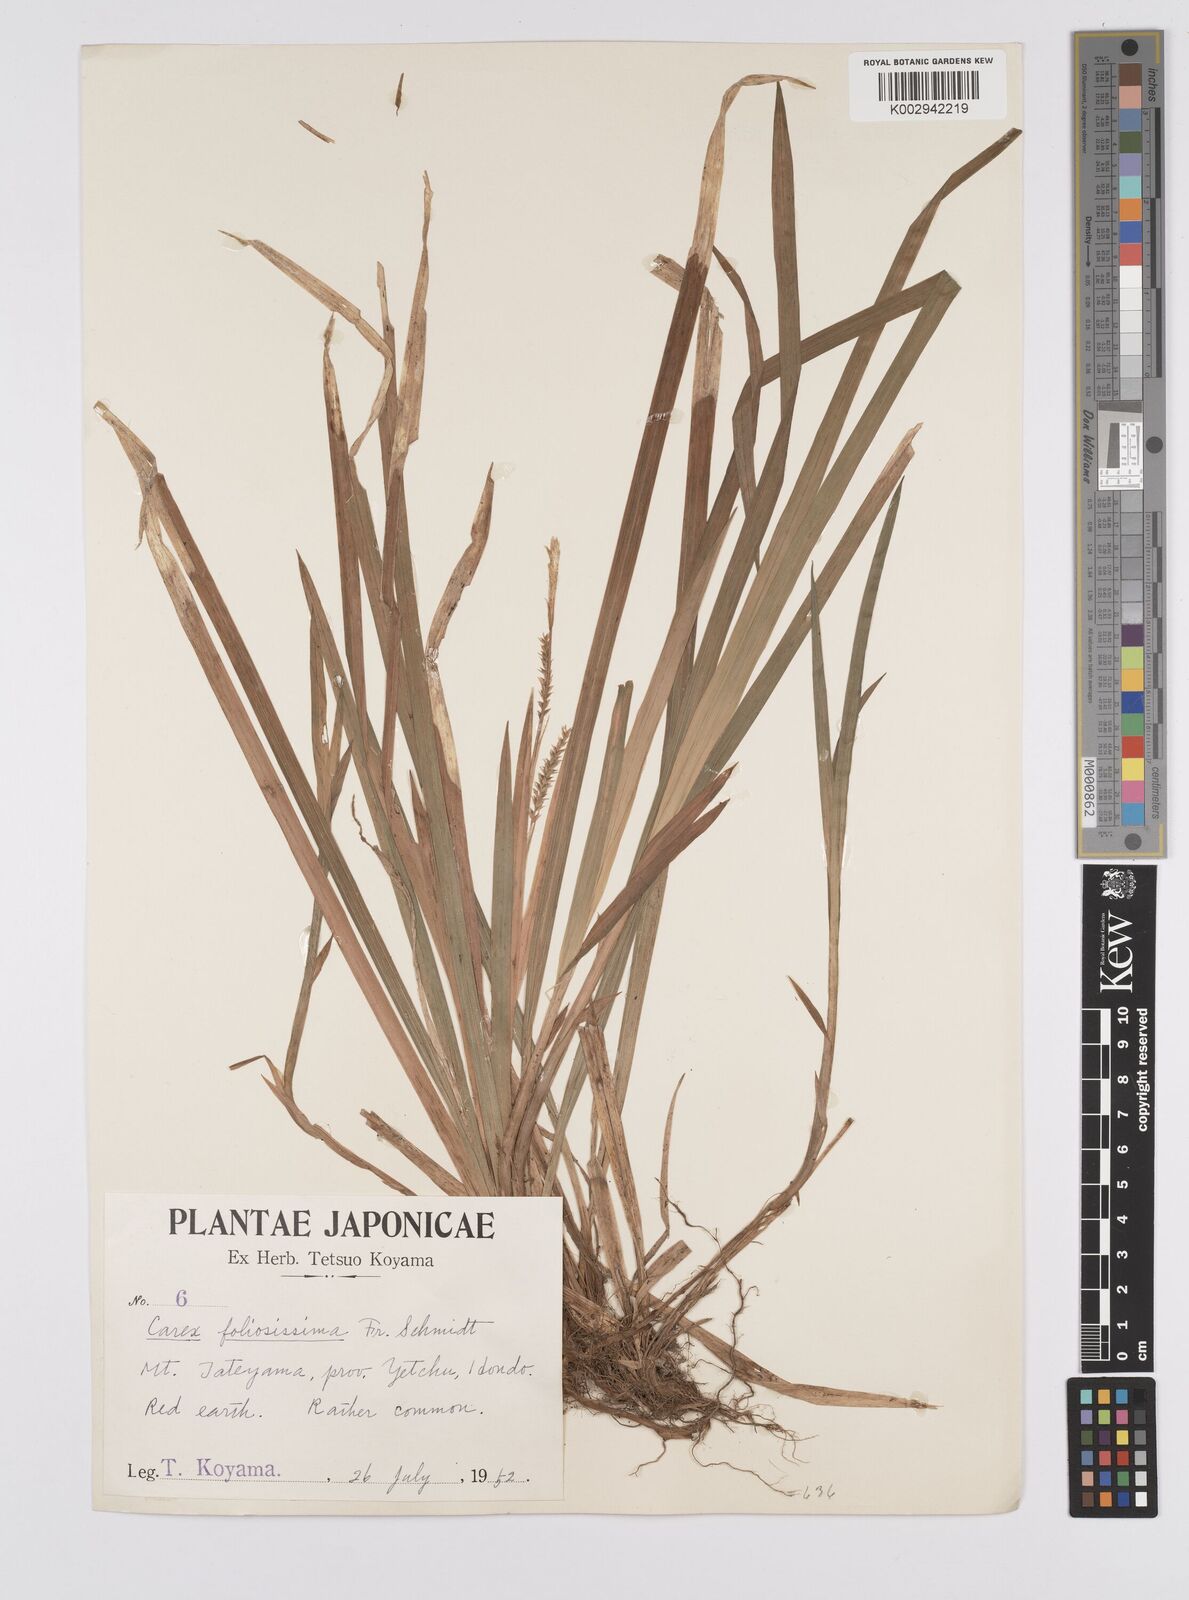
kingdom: Plantae
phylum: Tracheophyta
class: Liliopsida
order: Poales
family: Cyperaceae
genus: Carex
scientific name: Carex morrowii
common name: Japanese sedge
